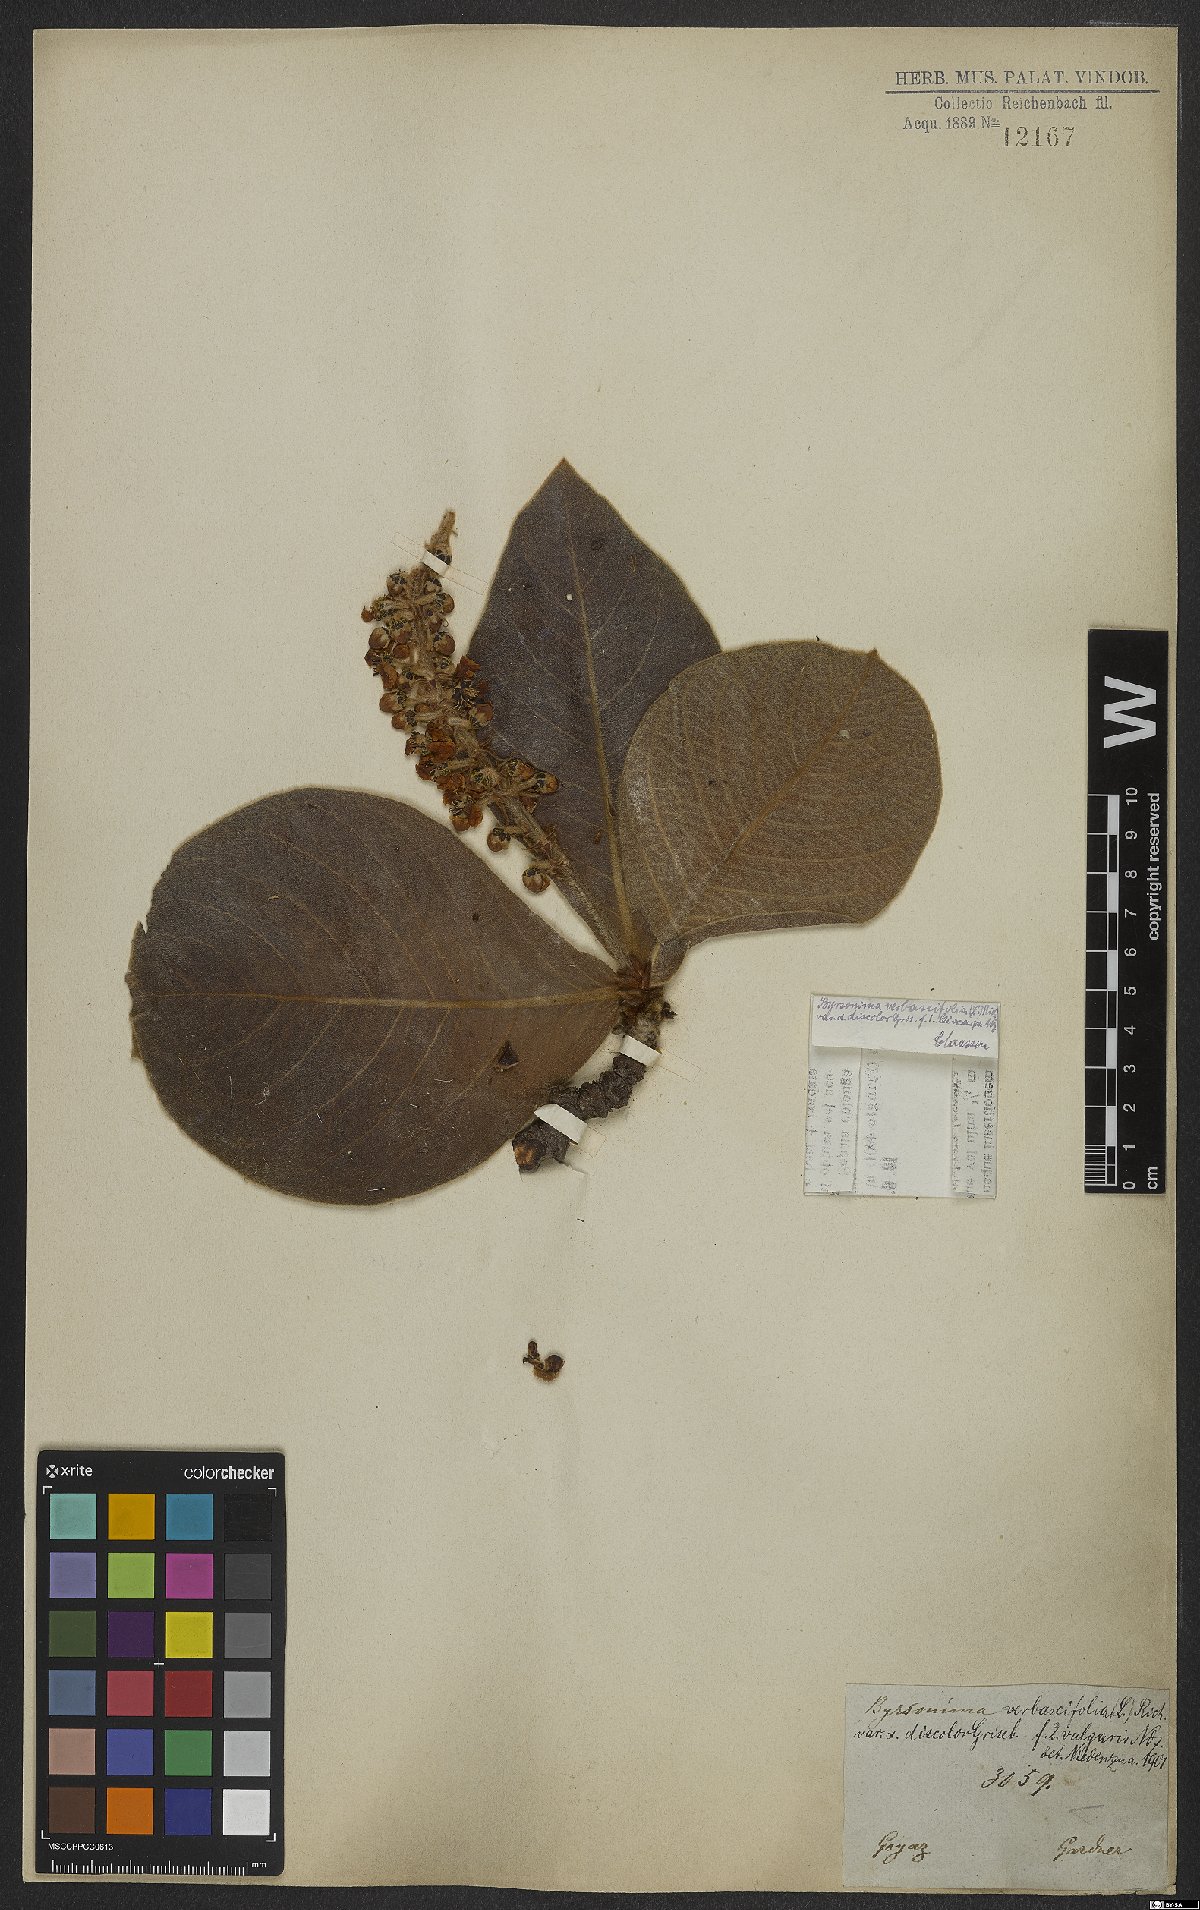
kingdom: Plantae
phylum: Tracheophyta
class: Magnoliopsida
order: Malpighiales
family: Malpighiaceae
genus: Byrsonima
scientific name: Byrsonima verbascifolia
